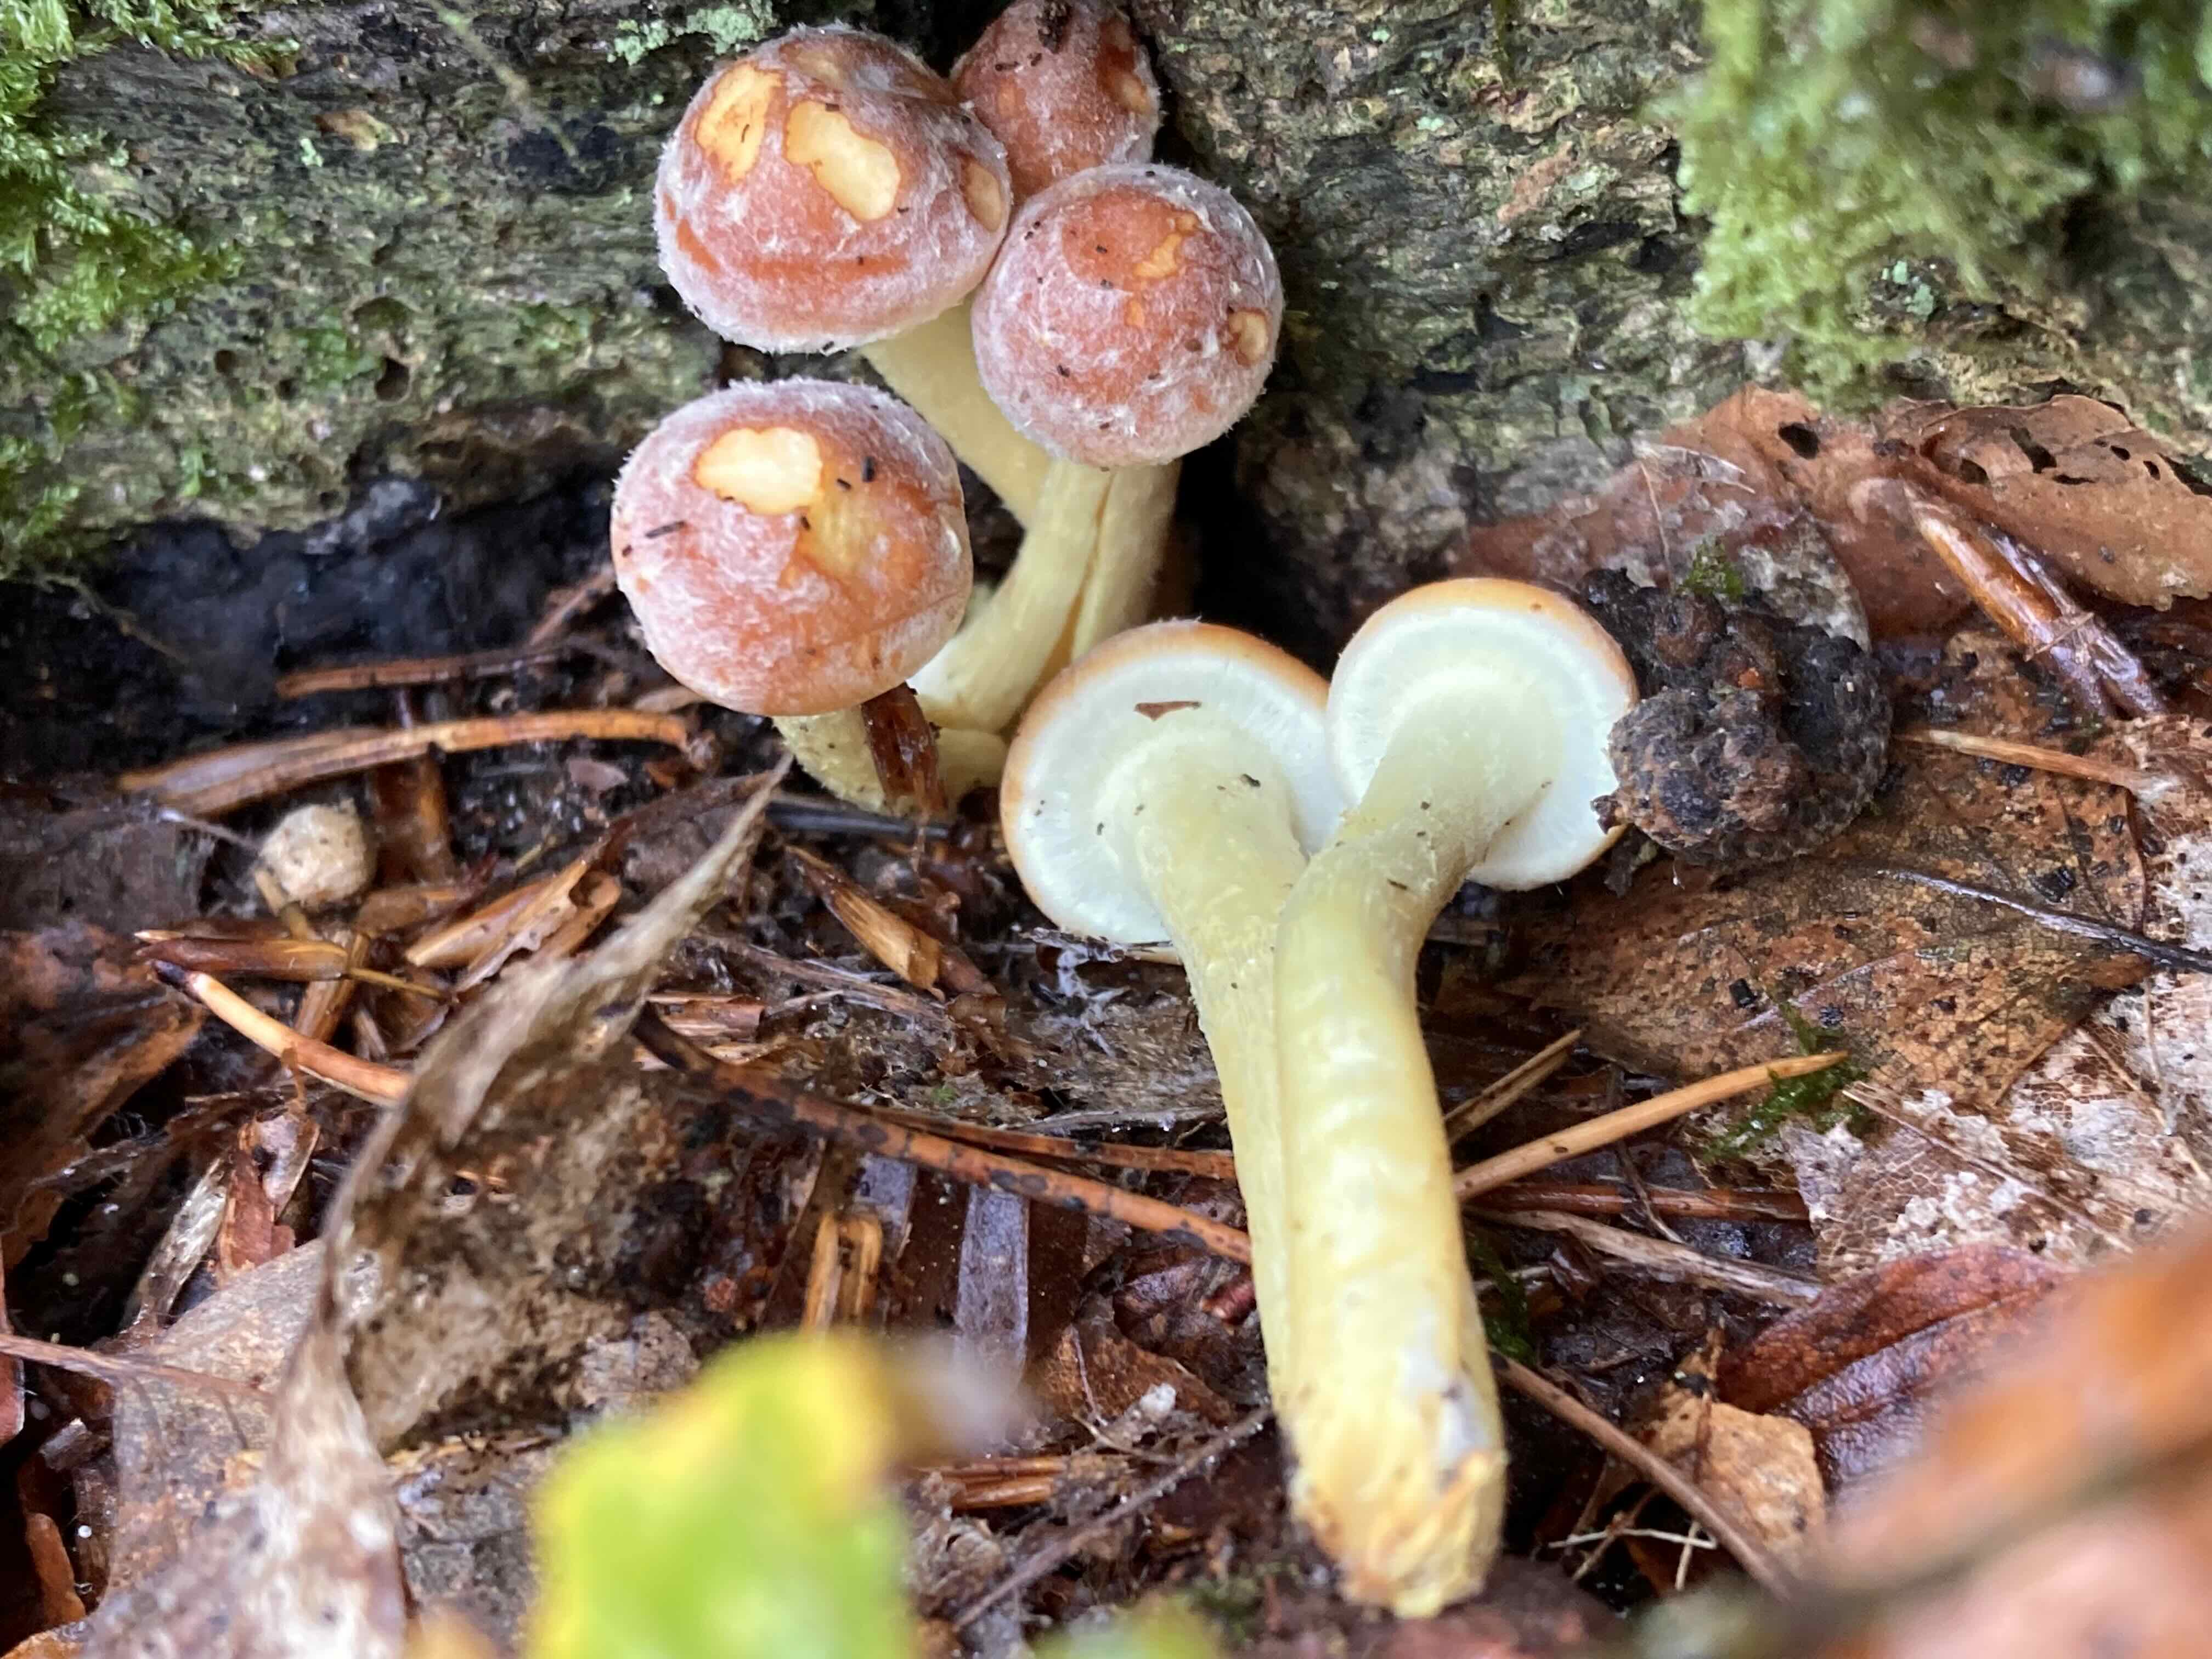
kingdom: Fungi
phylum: Basidiomycota
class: Agaricomycetes
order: Agaricales
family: Strophariaceae
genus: Hypholoma
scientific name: Hypholoma fasciculare
